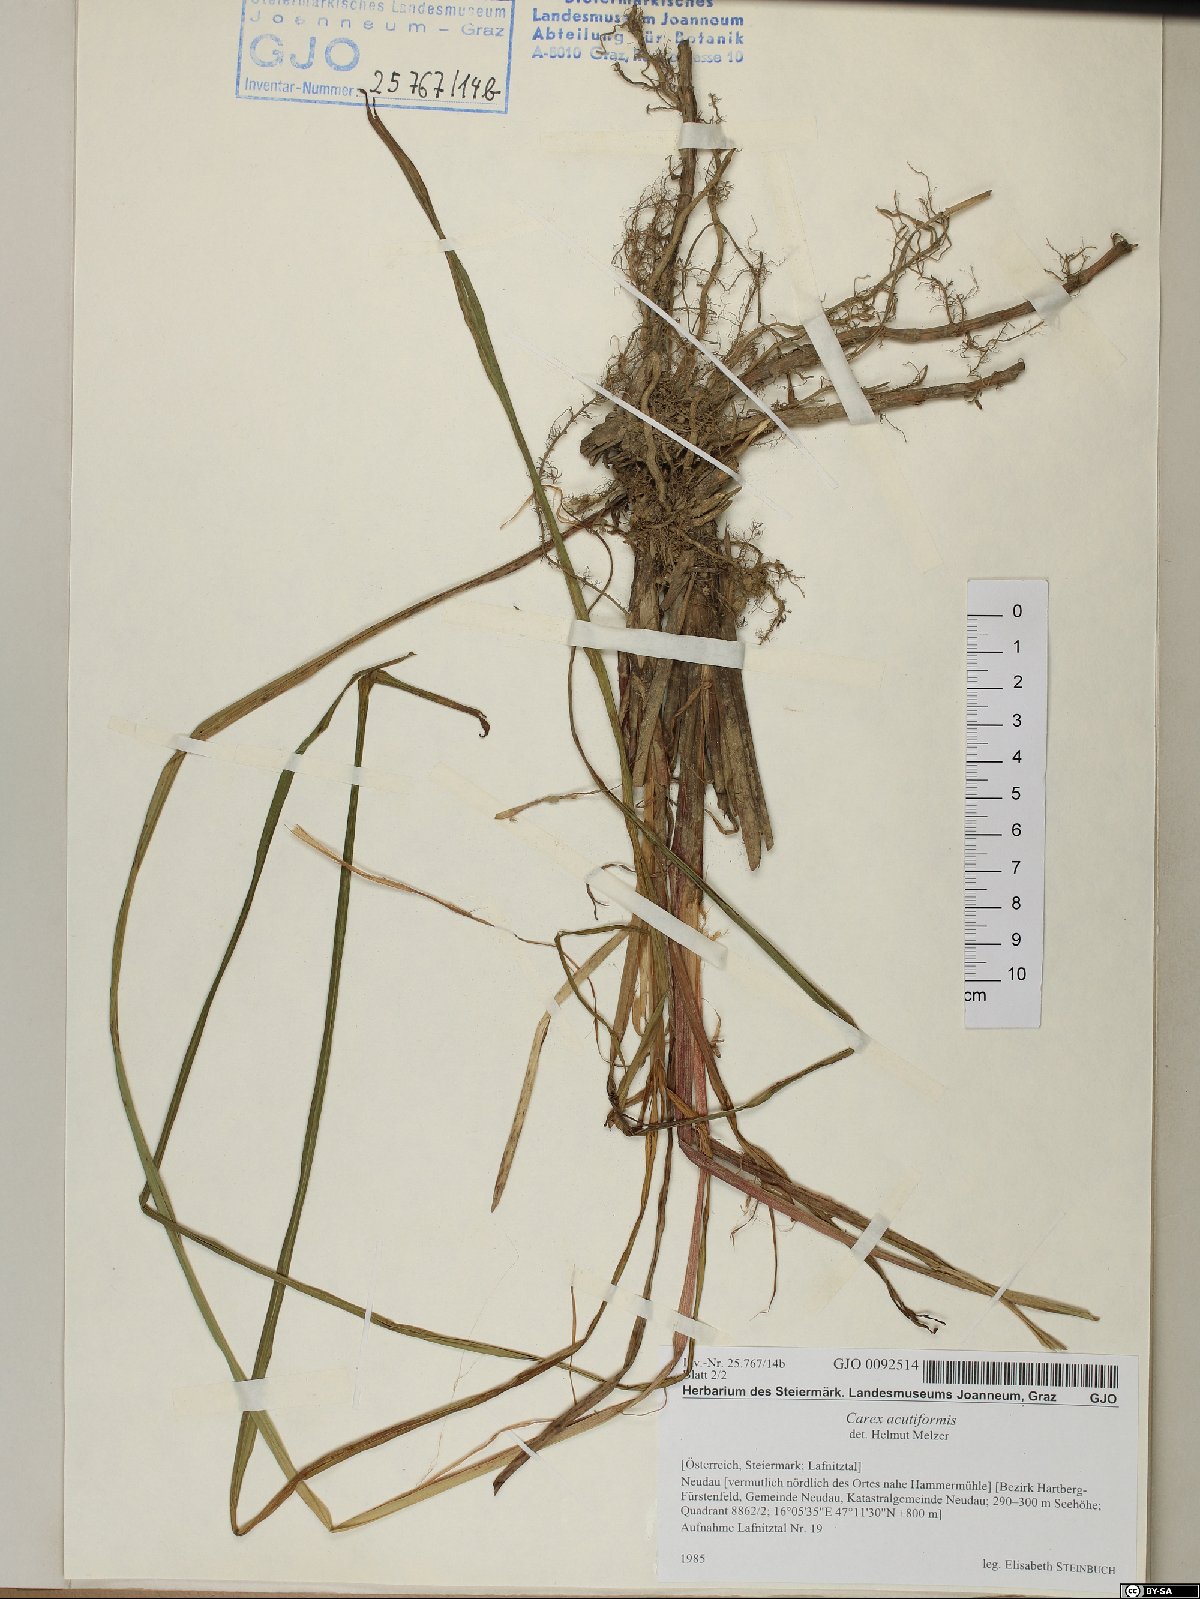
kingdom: Plantae
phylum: Tracheophyta
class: Liliopsida
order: Poales
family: Cyperaceae
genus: Carex
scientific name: Carex acutiformis
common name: Lesser pond-sedge
